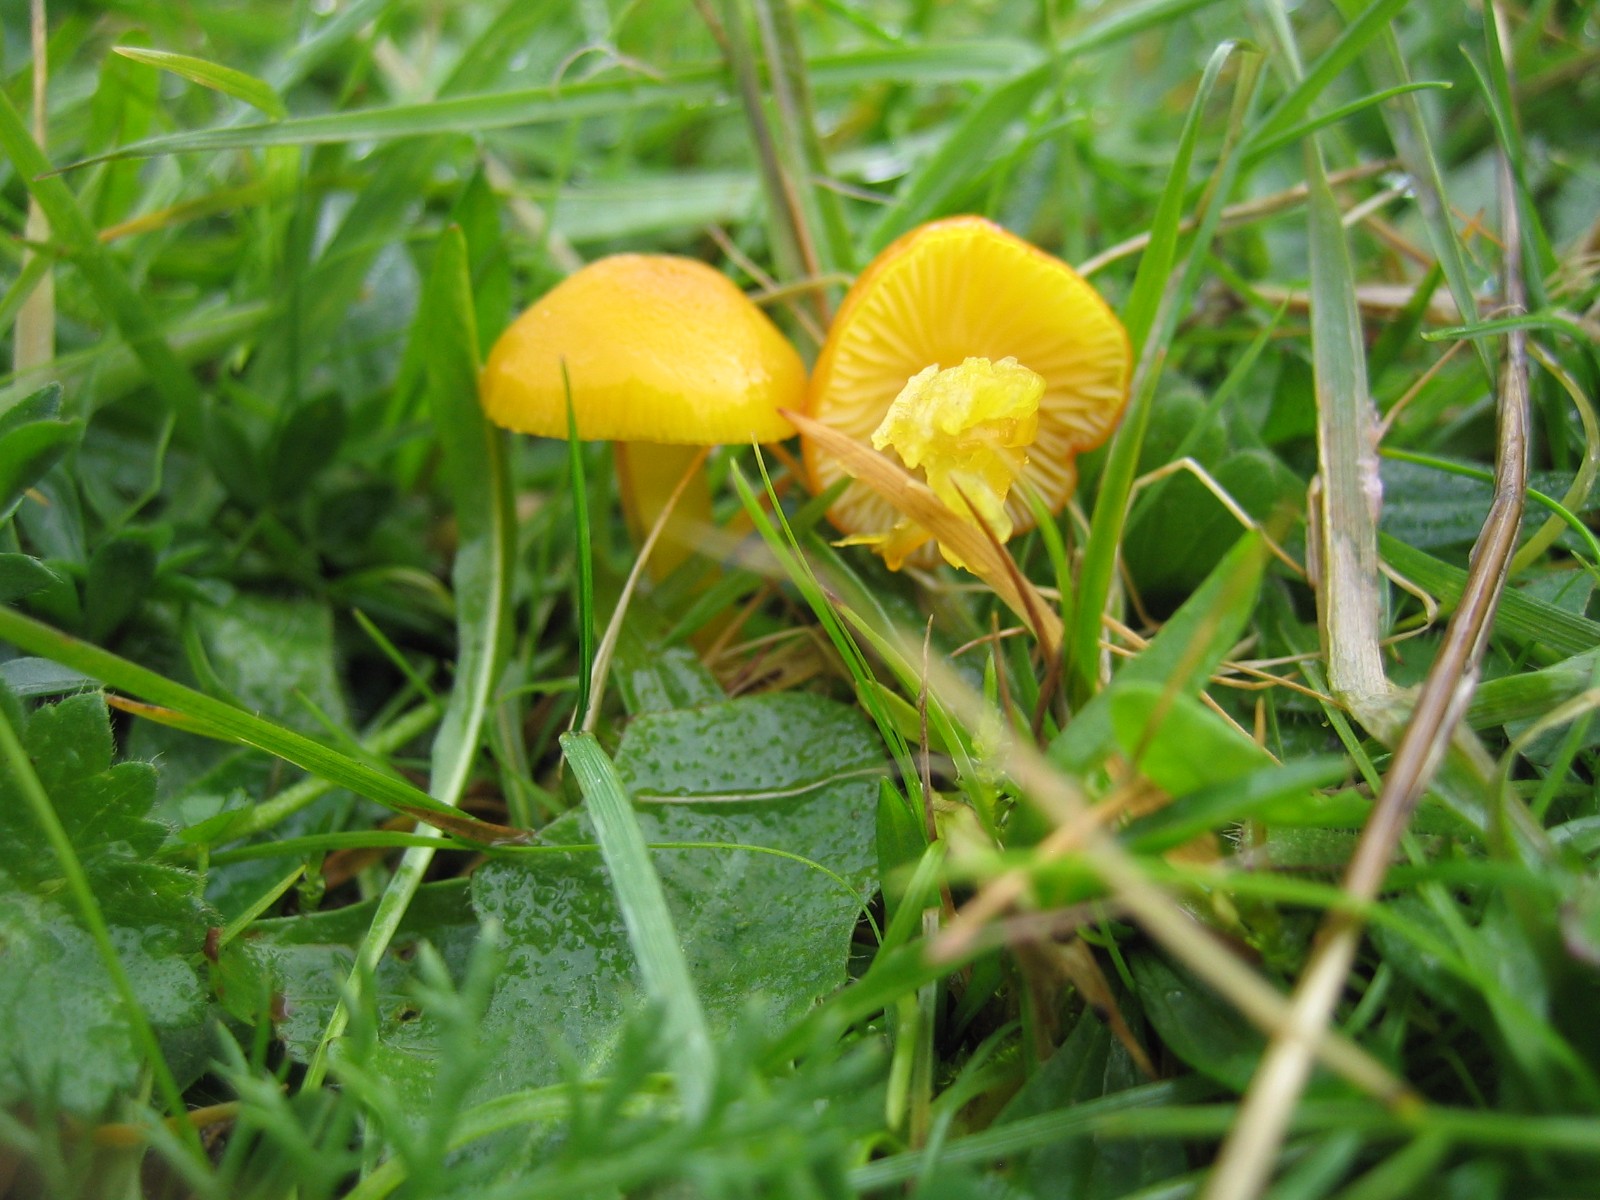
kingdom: Fungi
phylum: Basidiomycota
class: Agaricomycetes
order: Agaricales
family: Hygrophoraceae
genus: Hygrocybe
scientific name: Hygrocybe ceracea
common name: voksgul vokshat
